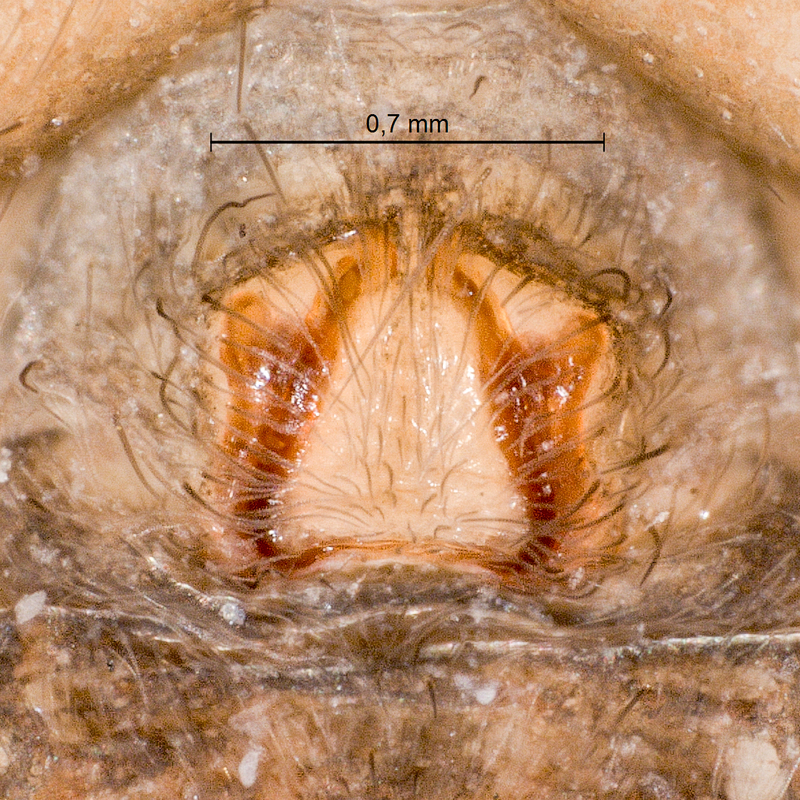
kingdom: Animalia
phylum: Arthropoda
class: Arachnida
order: Araneae
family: Lycosidae
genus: Aulonia
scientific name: Aulonia albimana
